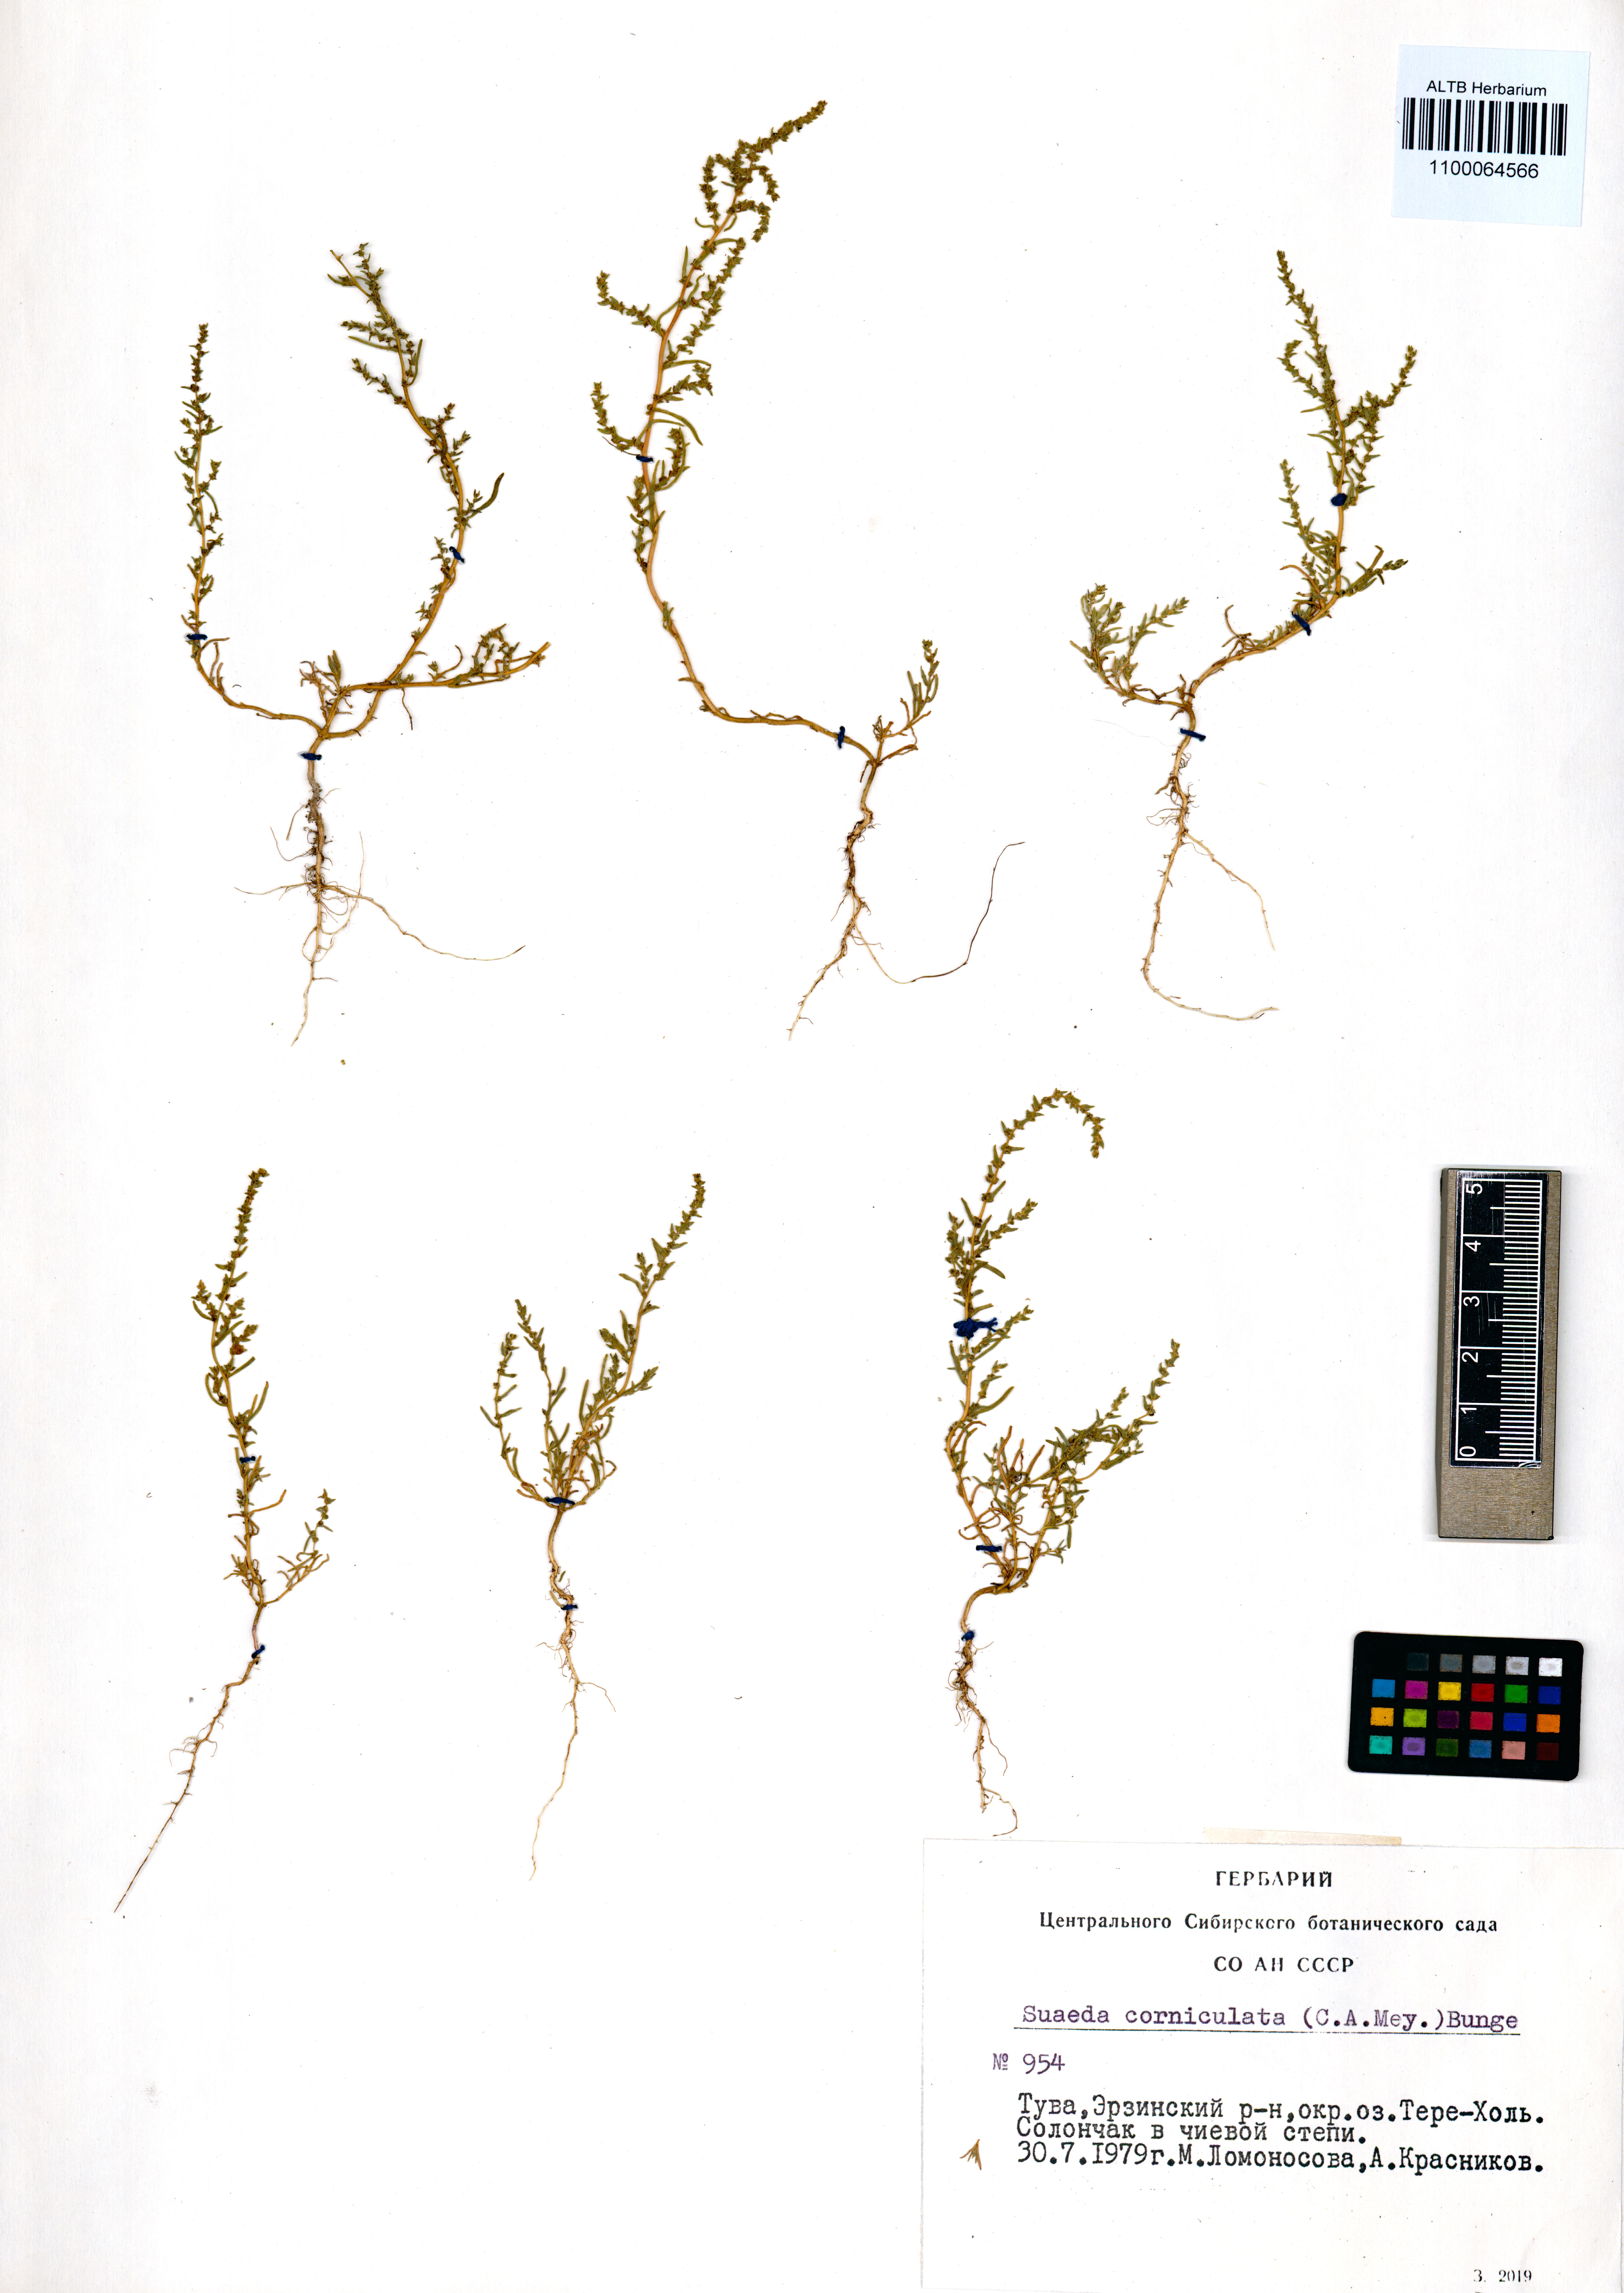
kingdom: Plantae
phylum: Tracheophyta
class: Magnoliopsida
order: Caryophyllales
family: Amaranthaceae
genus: Suaeda
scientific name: Suaeda corniculata
